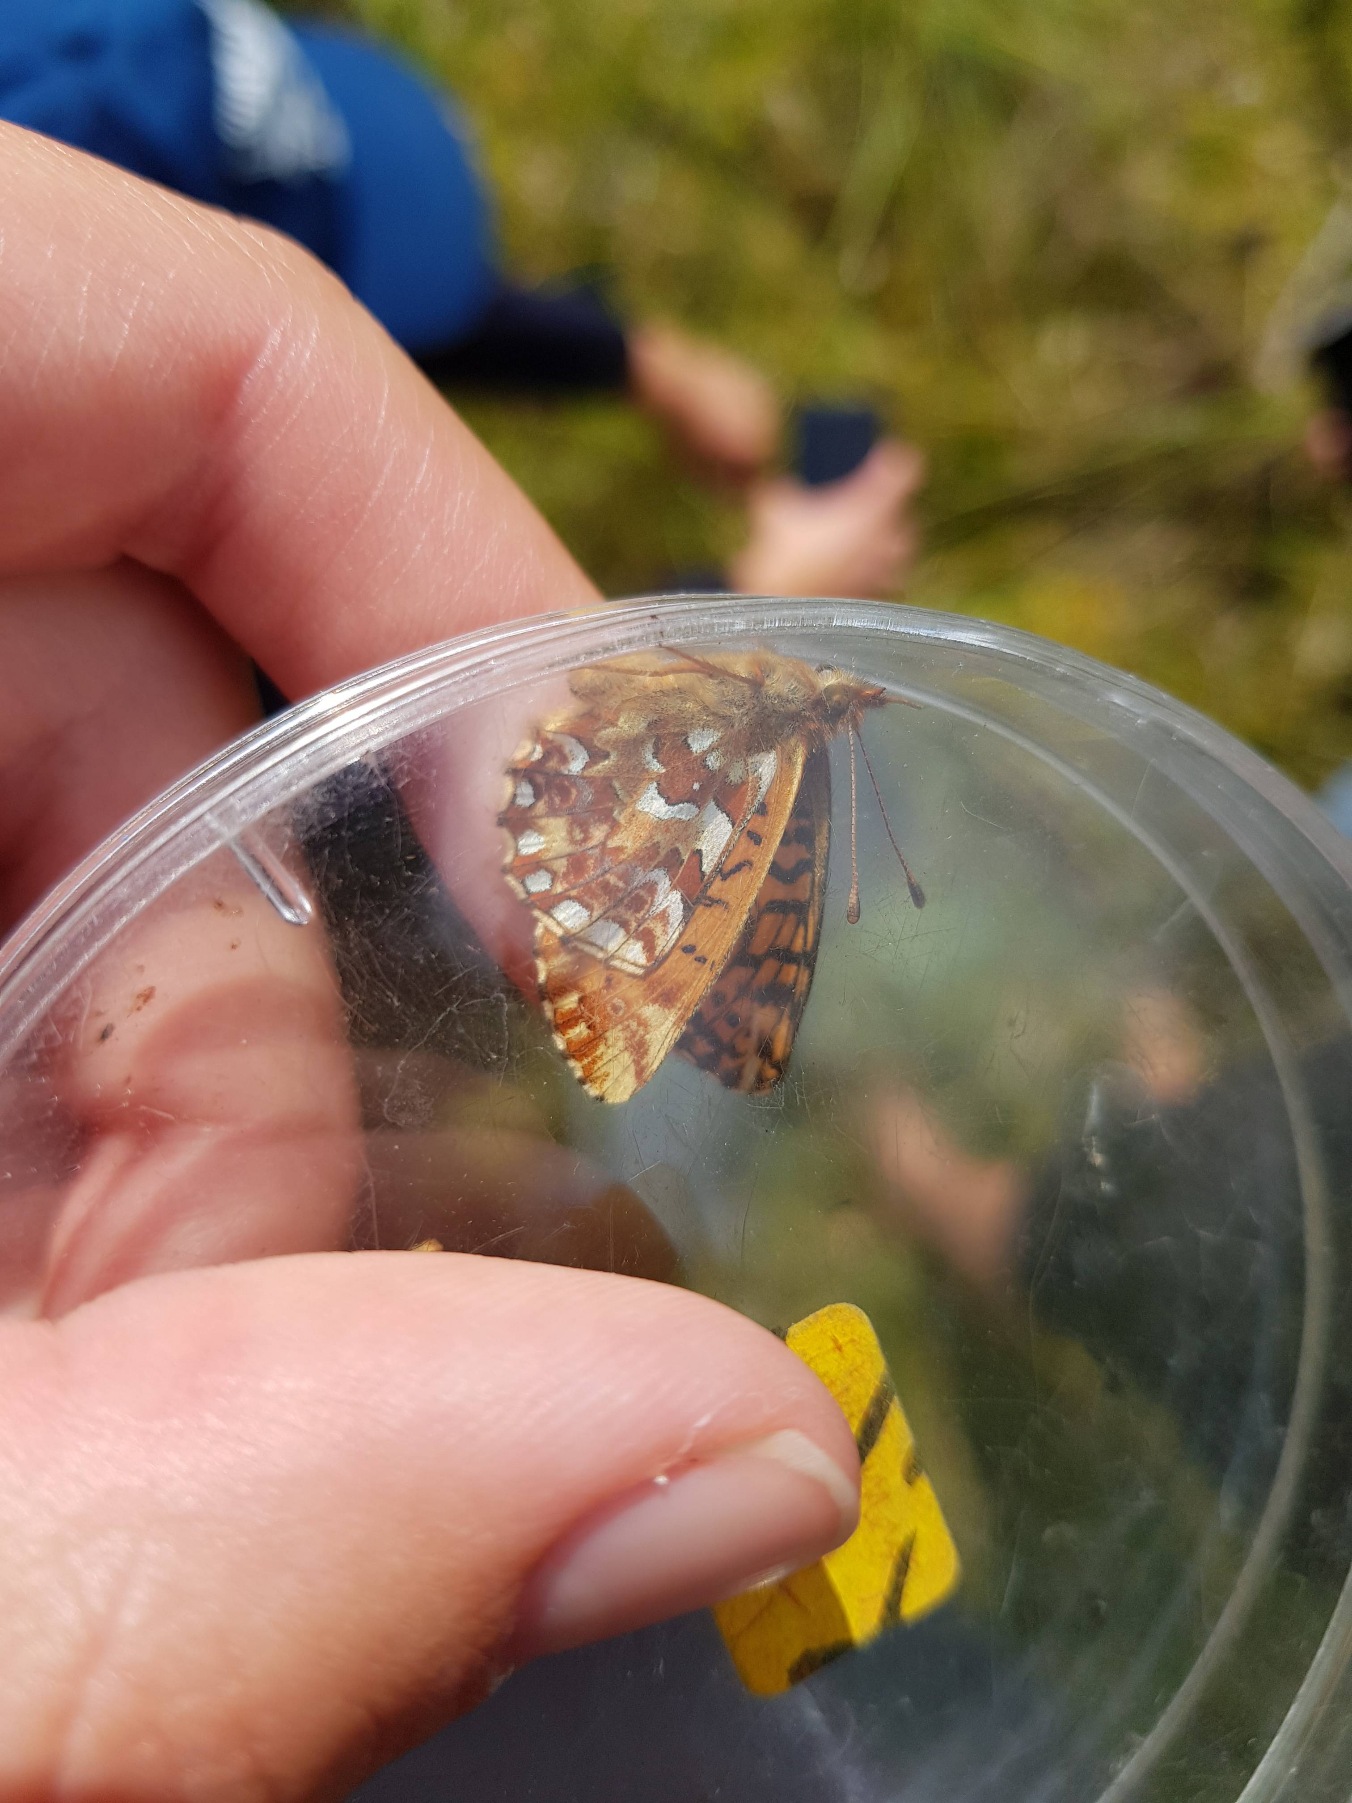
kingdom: Animalia
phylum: Arthropoda
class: Insecta
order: Lepidoptera
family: Nymphalidae
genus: Boloria
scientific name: Boloria aquilonaris
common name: Moseperlemorsommerfugl
